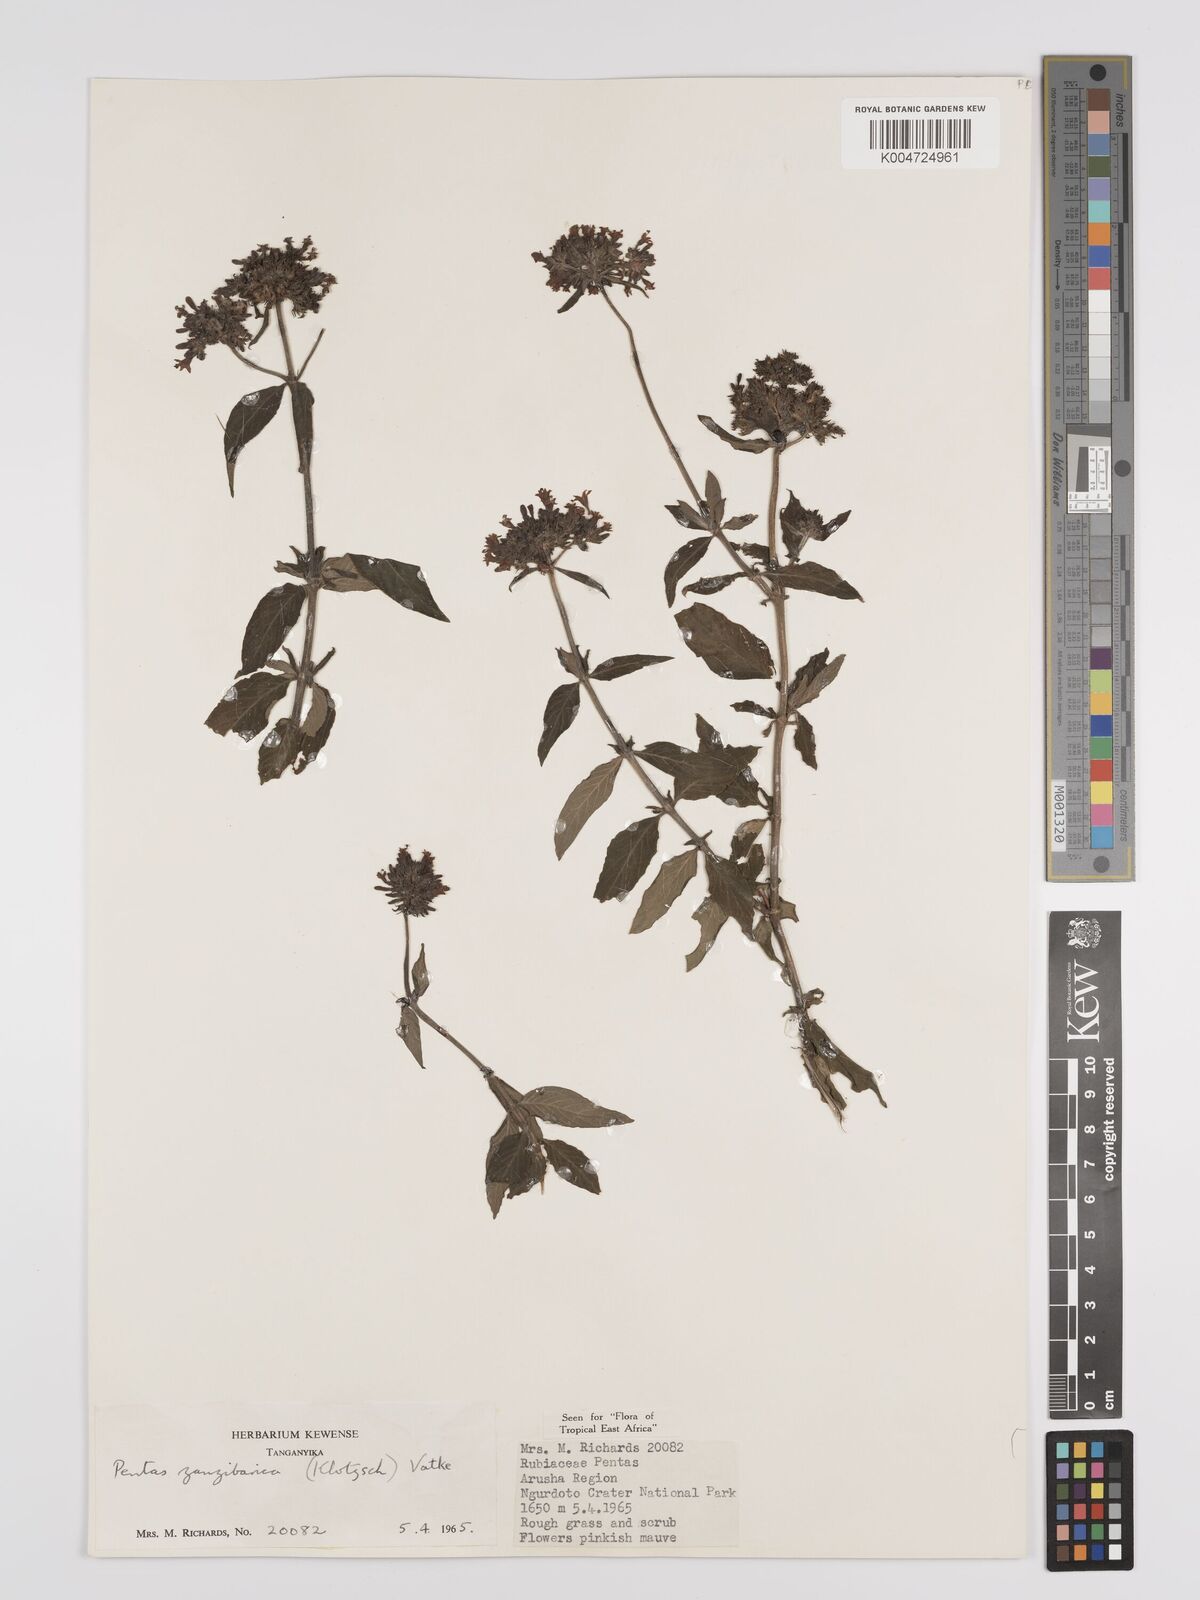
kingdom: Plantae
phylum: Tracheophyta
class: Magnoliopsida
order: Gentianales
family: Rubiaceae
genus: Pentas
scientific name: Pentas zanzibarica
